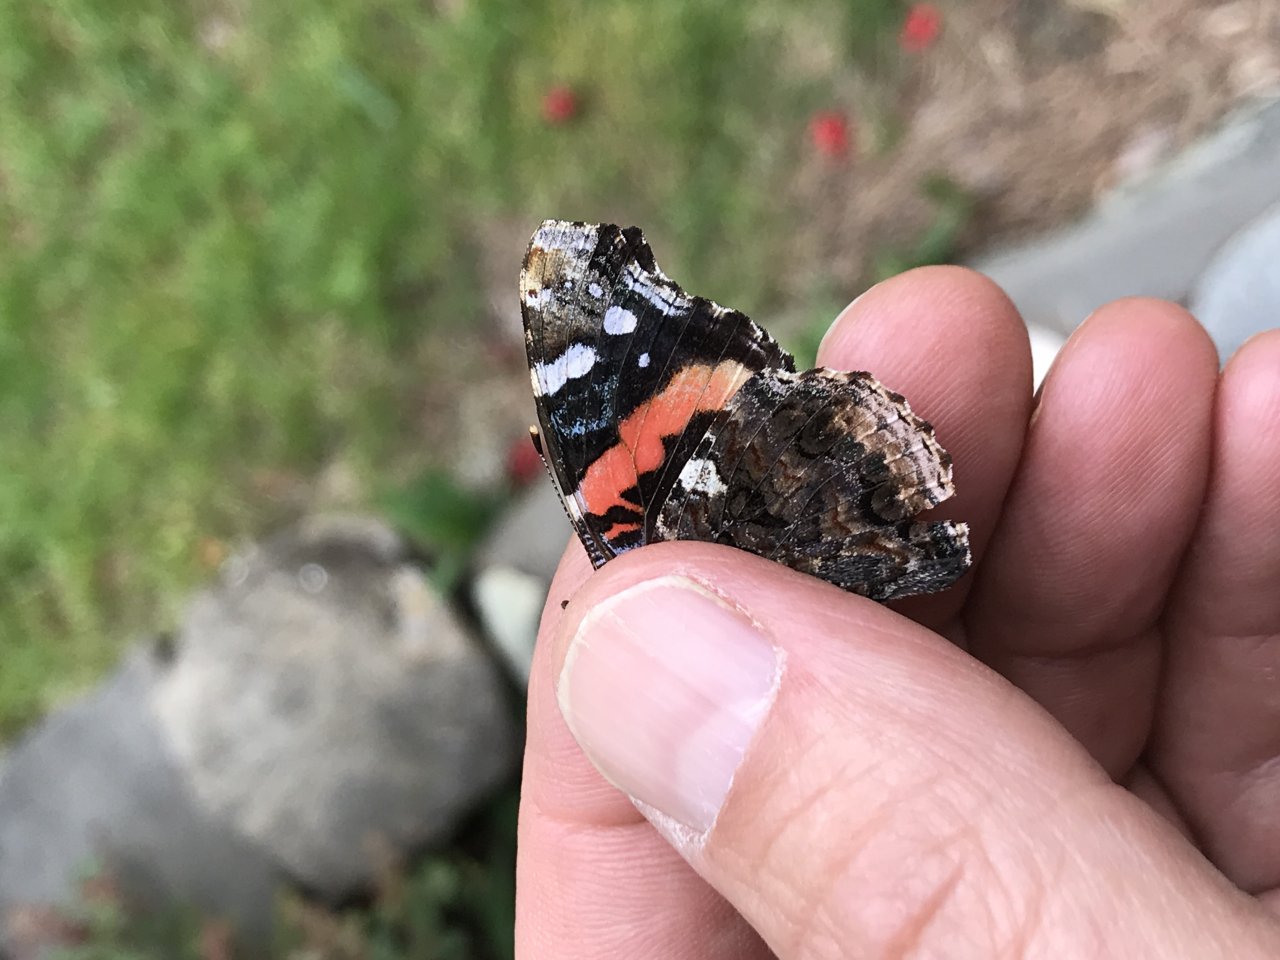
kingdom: Animalia
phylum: Arthropoda
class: Insecta
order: Lepidoptera
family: Nymphalidae
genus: Vanessa
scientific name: Vanessa atalanta
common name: Red Admiral
